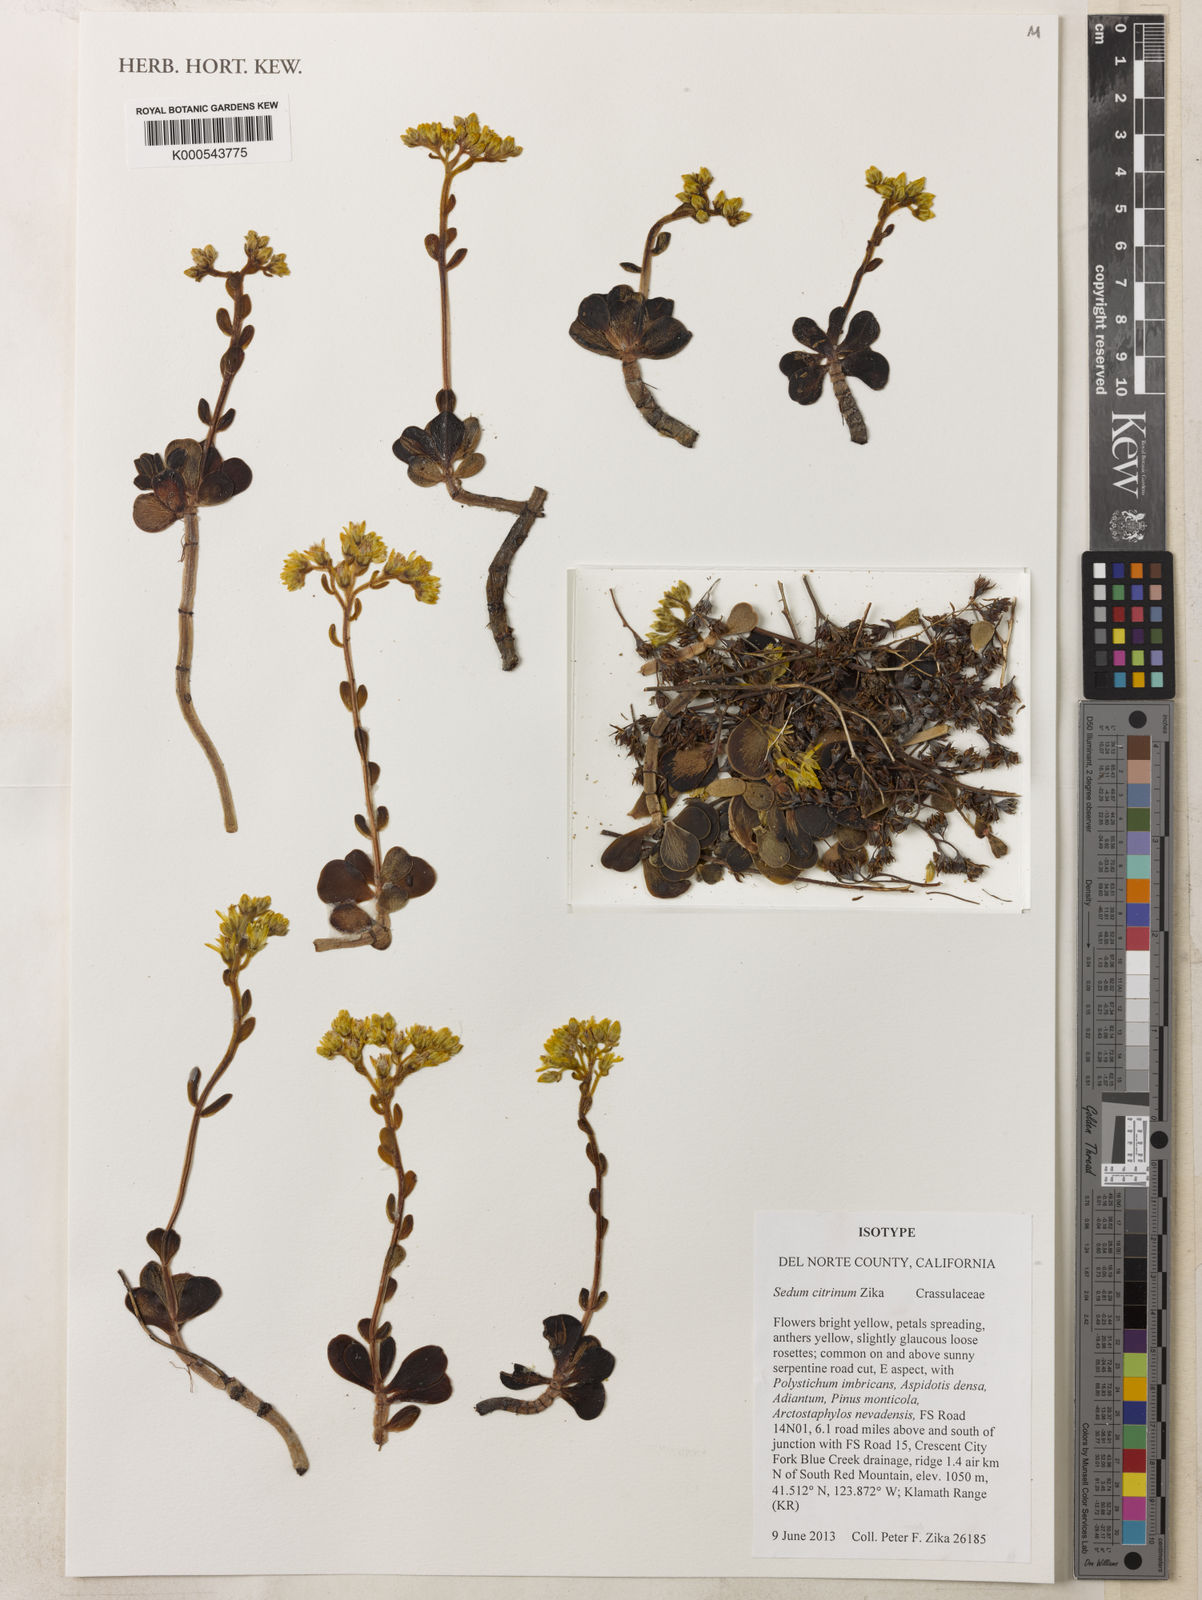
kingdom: Plantae
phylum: Tracheophyta
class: Magnoliopsida
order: Saxifragales
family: Crassulaceae
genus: Sedum
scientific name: Sedum citrinum
